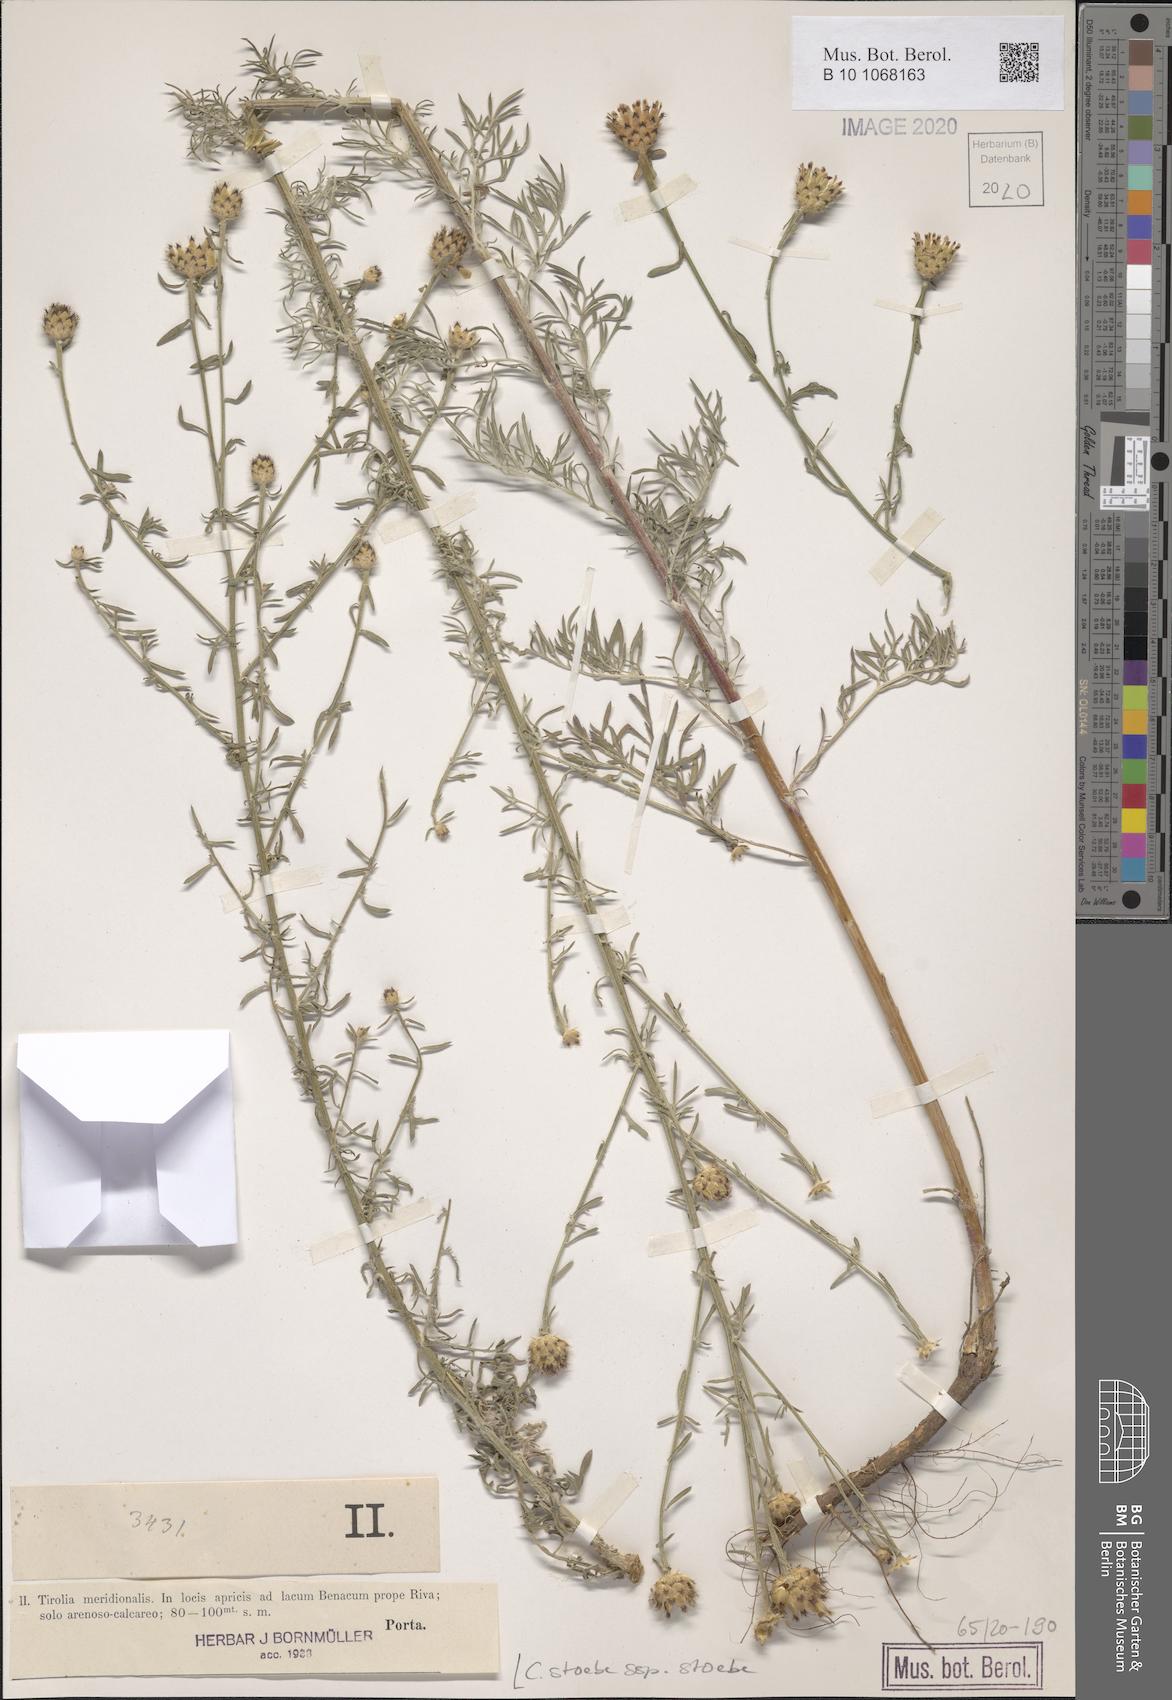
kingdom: Plantae
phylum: Tracheophyta
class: Magnoliopsida
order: Asterales
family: Asteraceae
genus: Centaurea
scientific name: Centaurea stoebe
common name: Spotted knapweed
